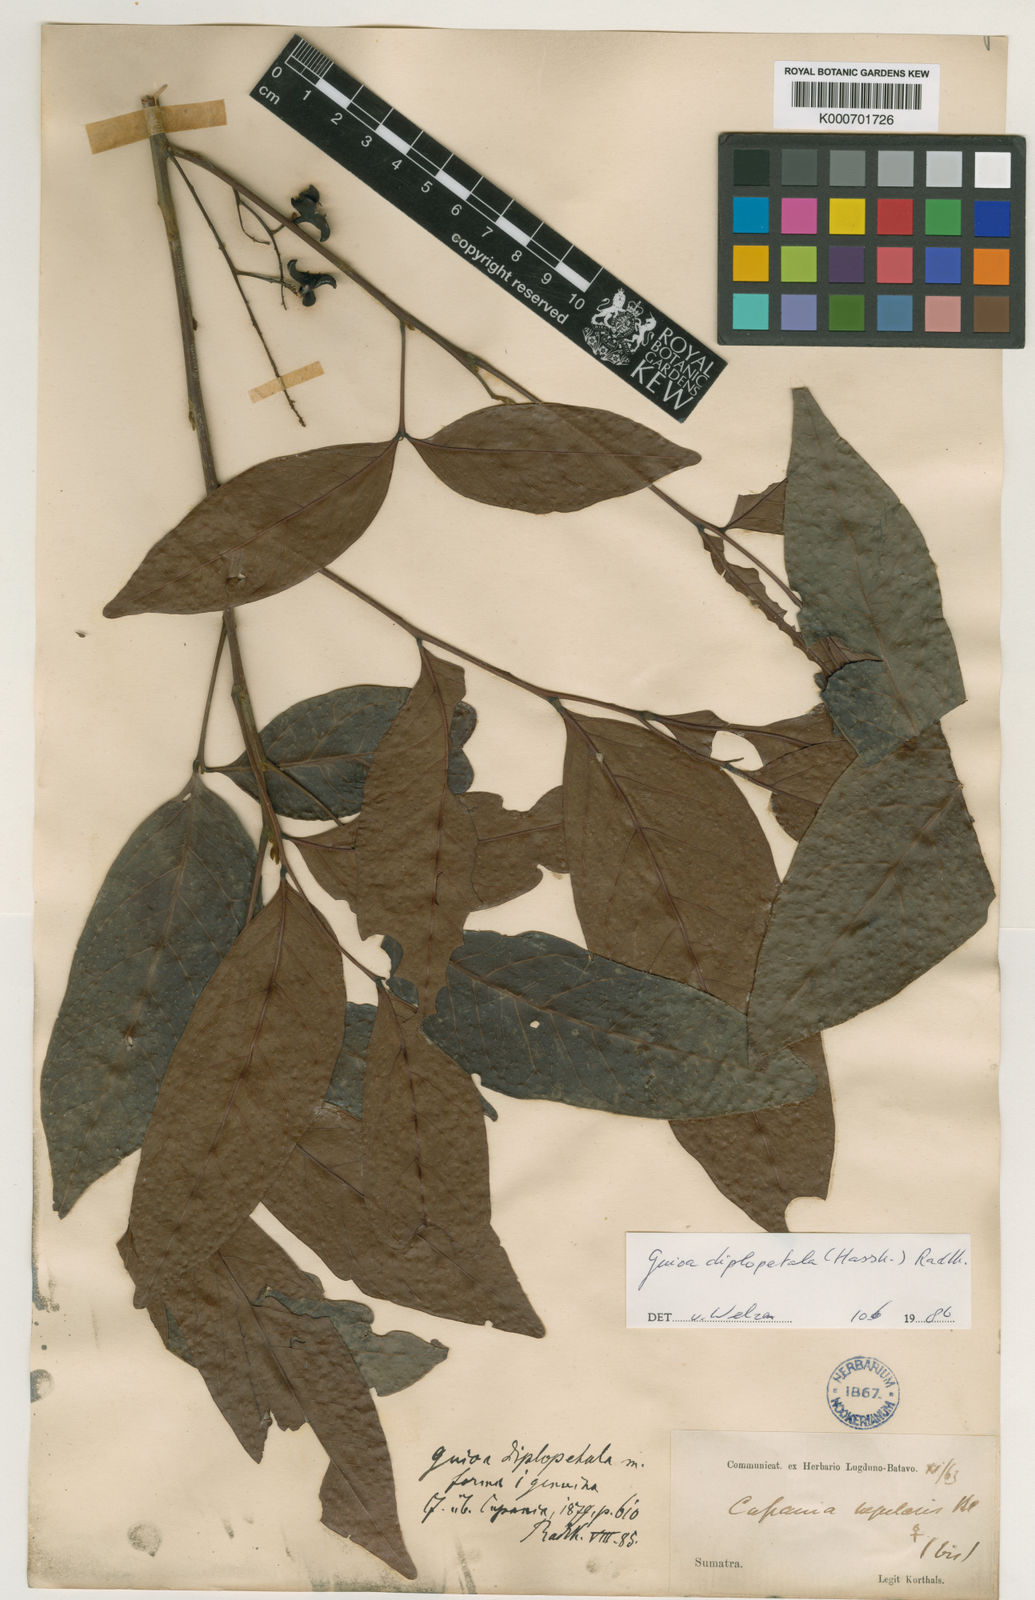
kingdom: Plantae
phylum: Tracheophyta
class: Magnoliopsida
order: Sapindales
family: Sapindaceae
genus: Guioa
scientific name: Guioa diplopetala
